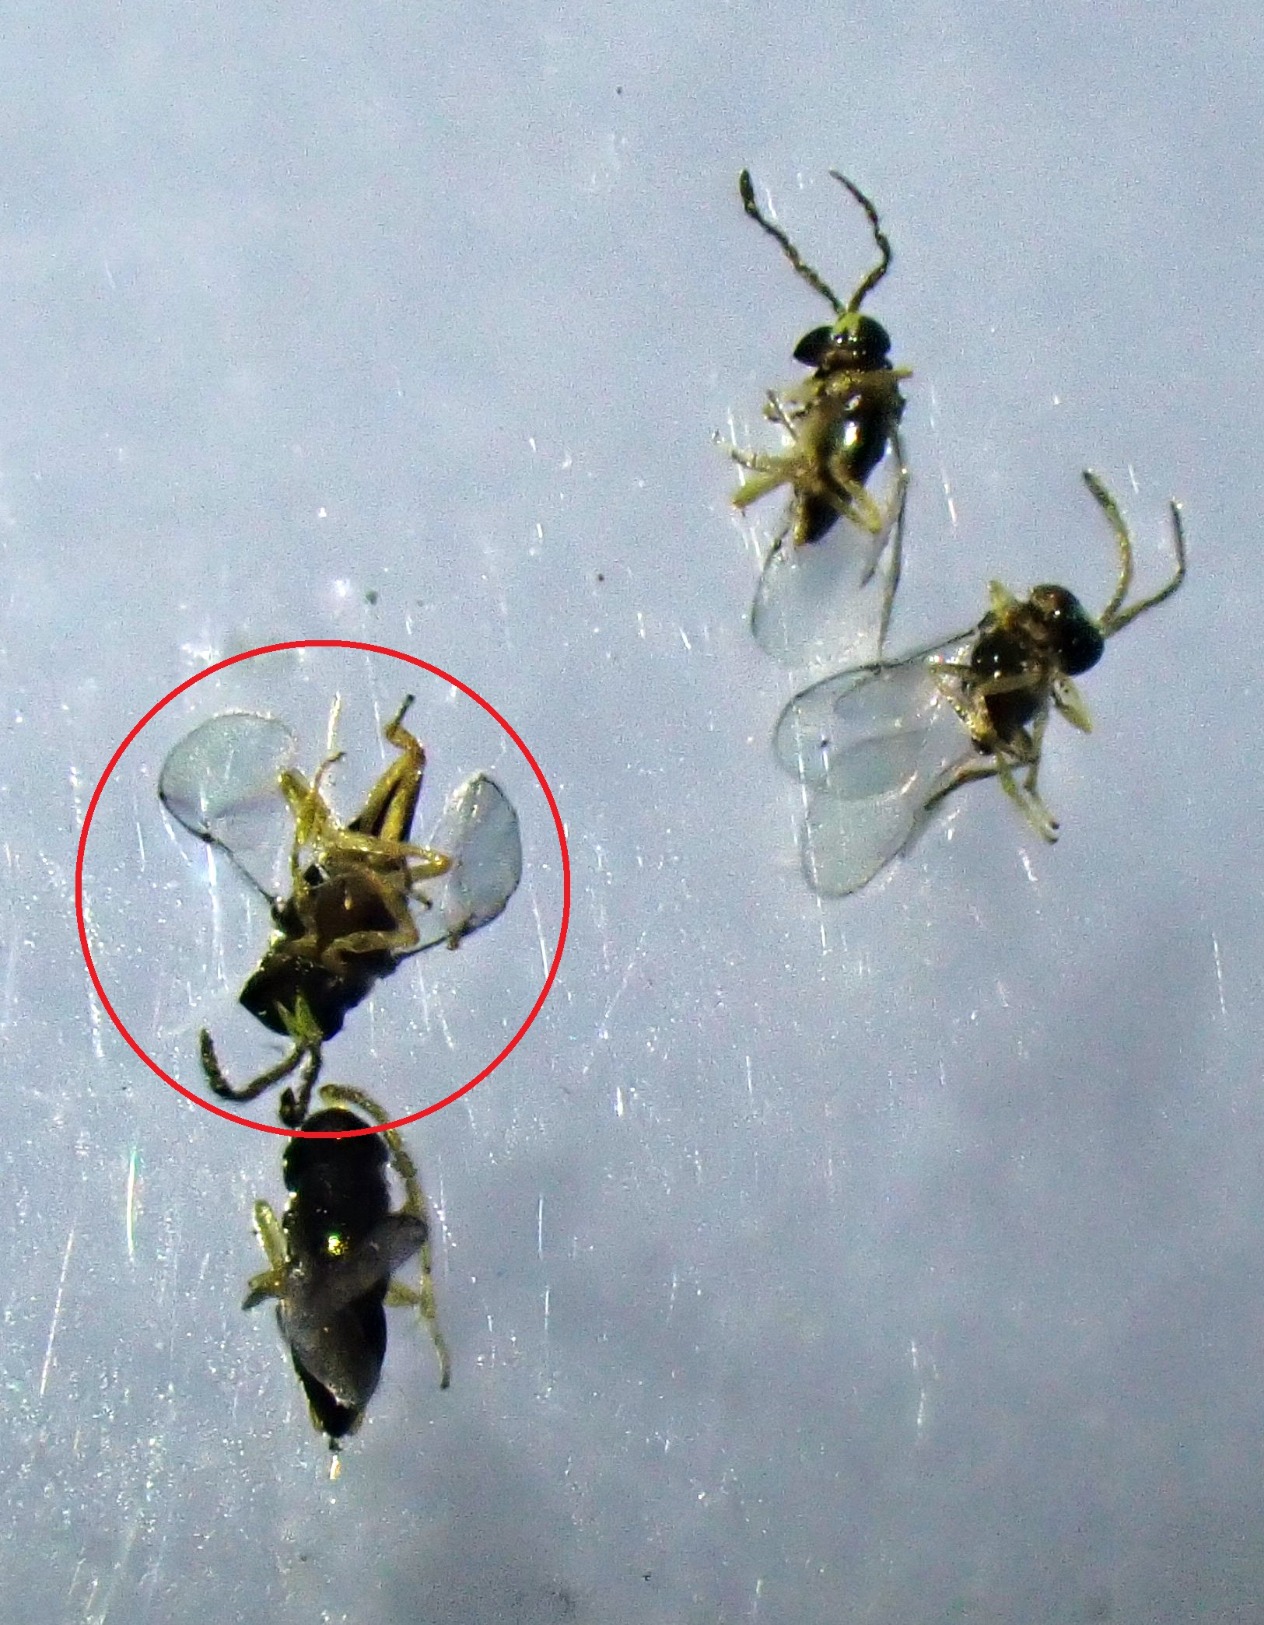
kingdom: Animalia
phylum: Arthropoda
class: Insecta
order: Hymenoptera
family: Encyrtidae
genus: Microterys
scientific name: Microterys seyon
